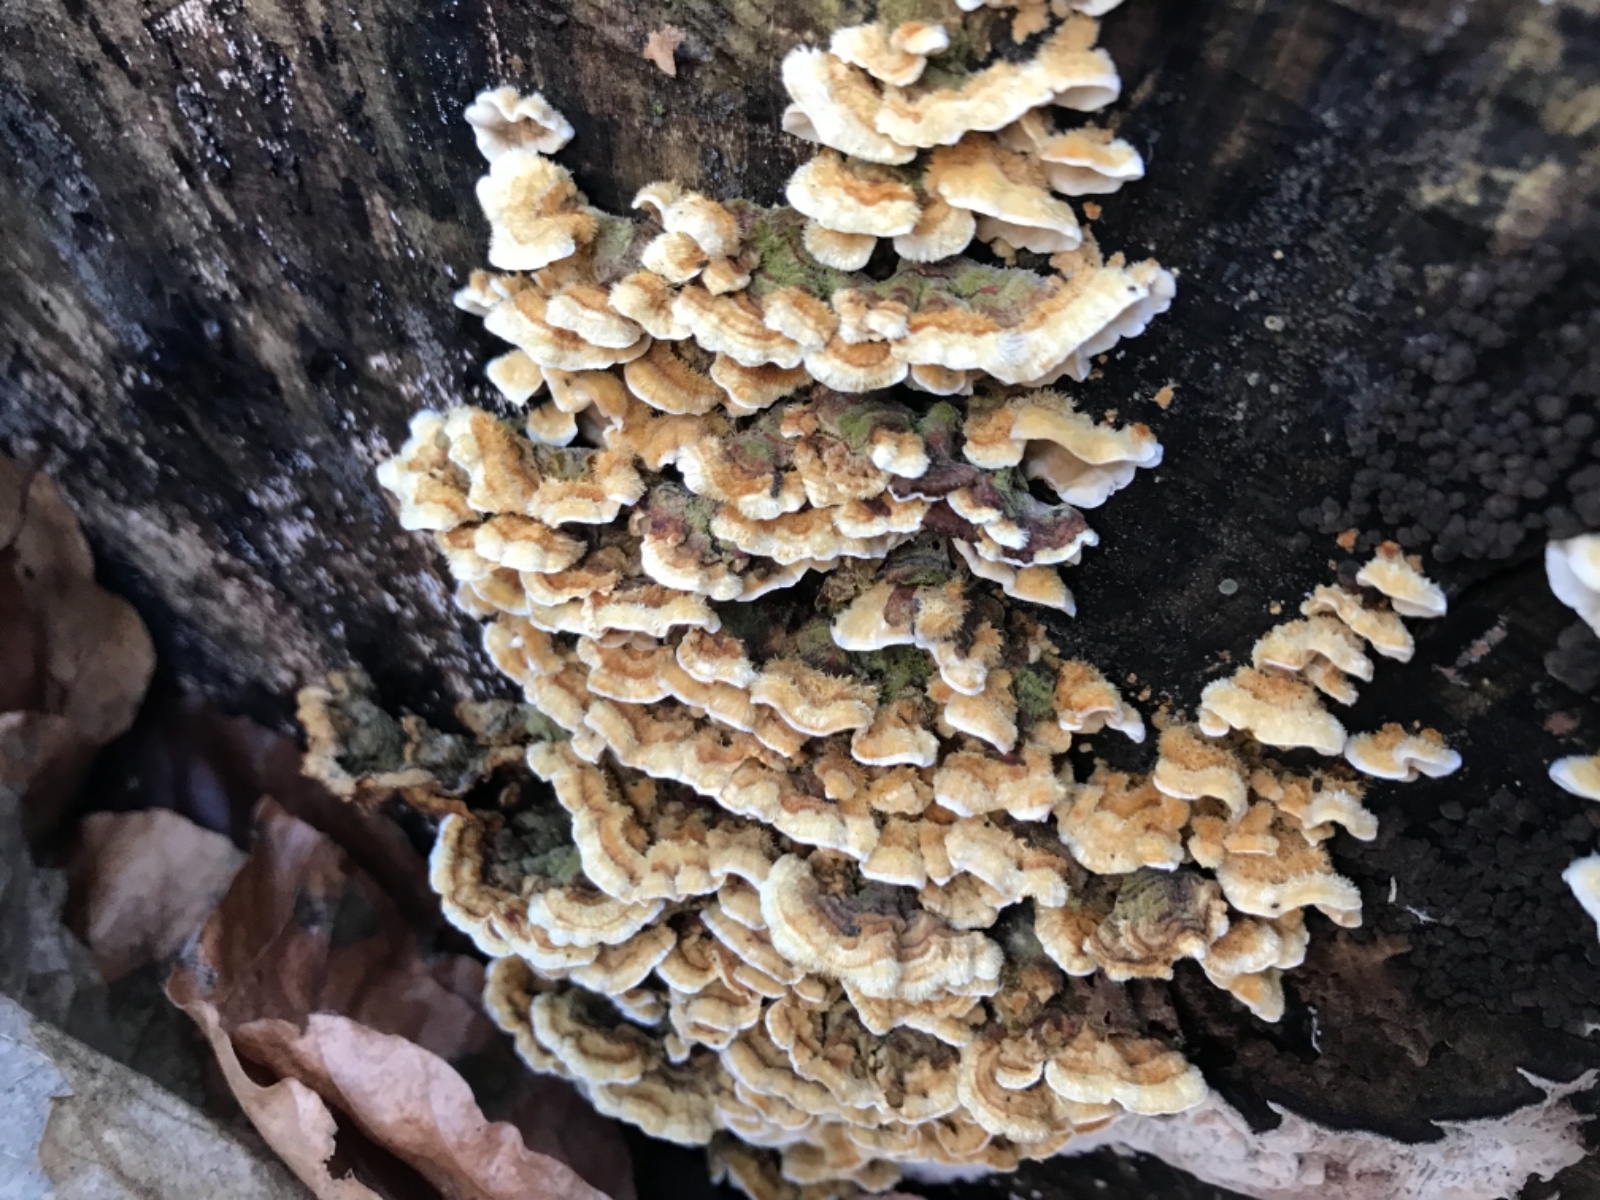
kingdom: Fungi
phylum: Basidiomycota
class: Agaricomycetes
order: Polyporales
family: Polyporaceae
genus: Trametes
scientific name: Trametes
